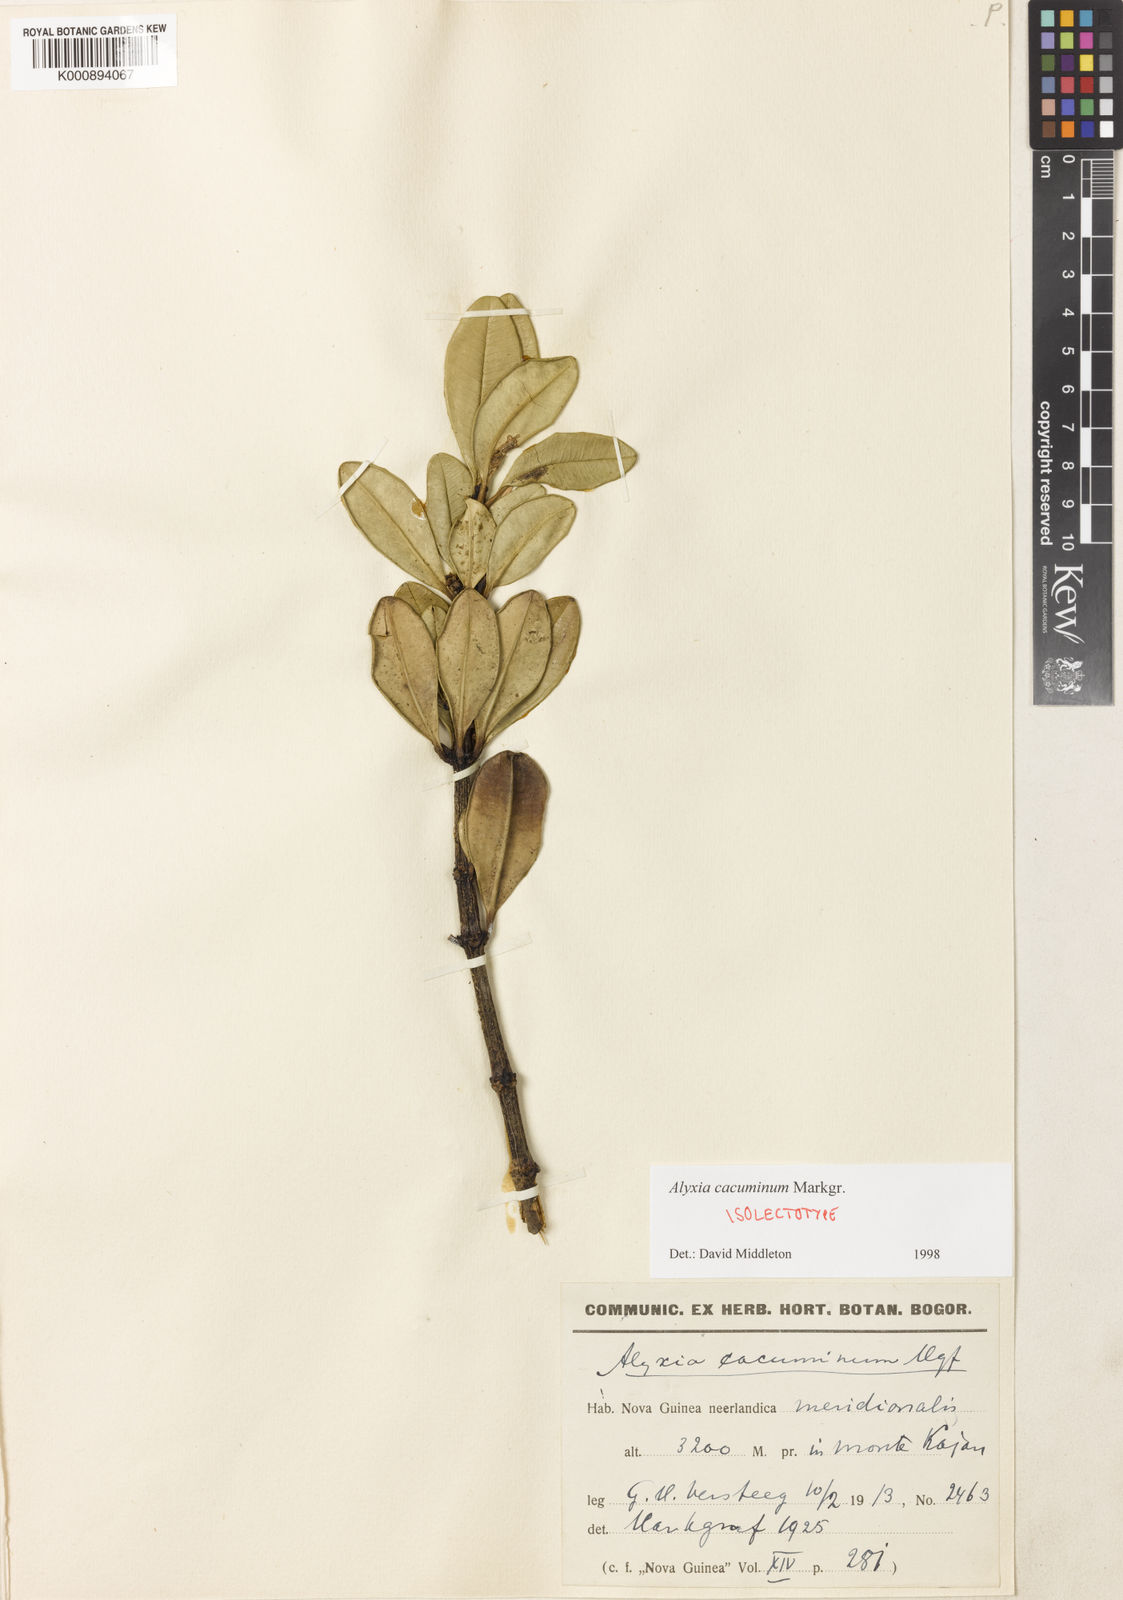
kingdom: Plantae
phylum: Tracheophyta
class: Magnoliopsida
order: Gentianales
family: Apocynaceae
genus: Alyxia
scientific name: Alyxia cacuminum
